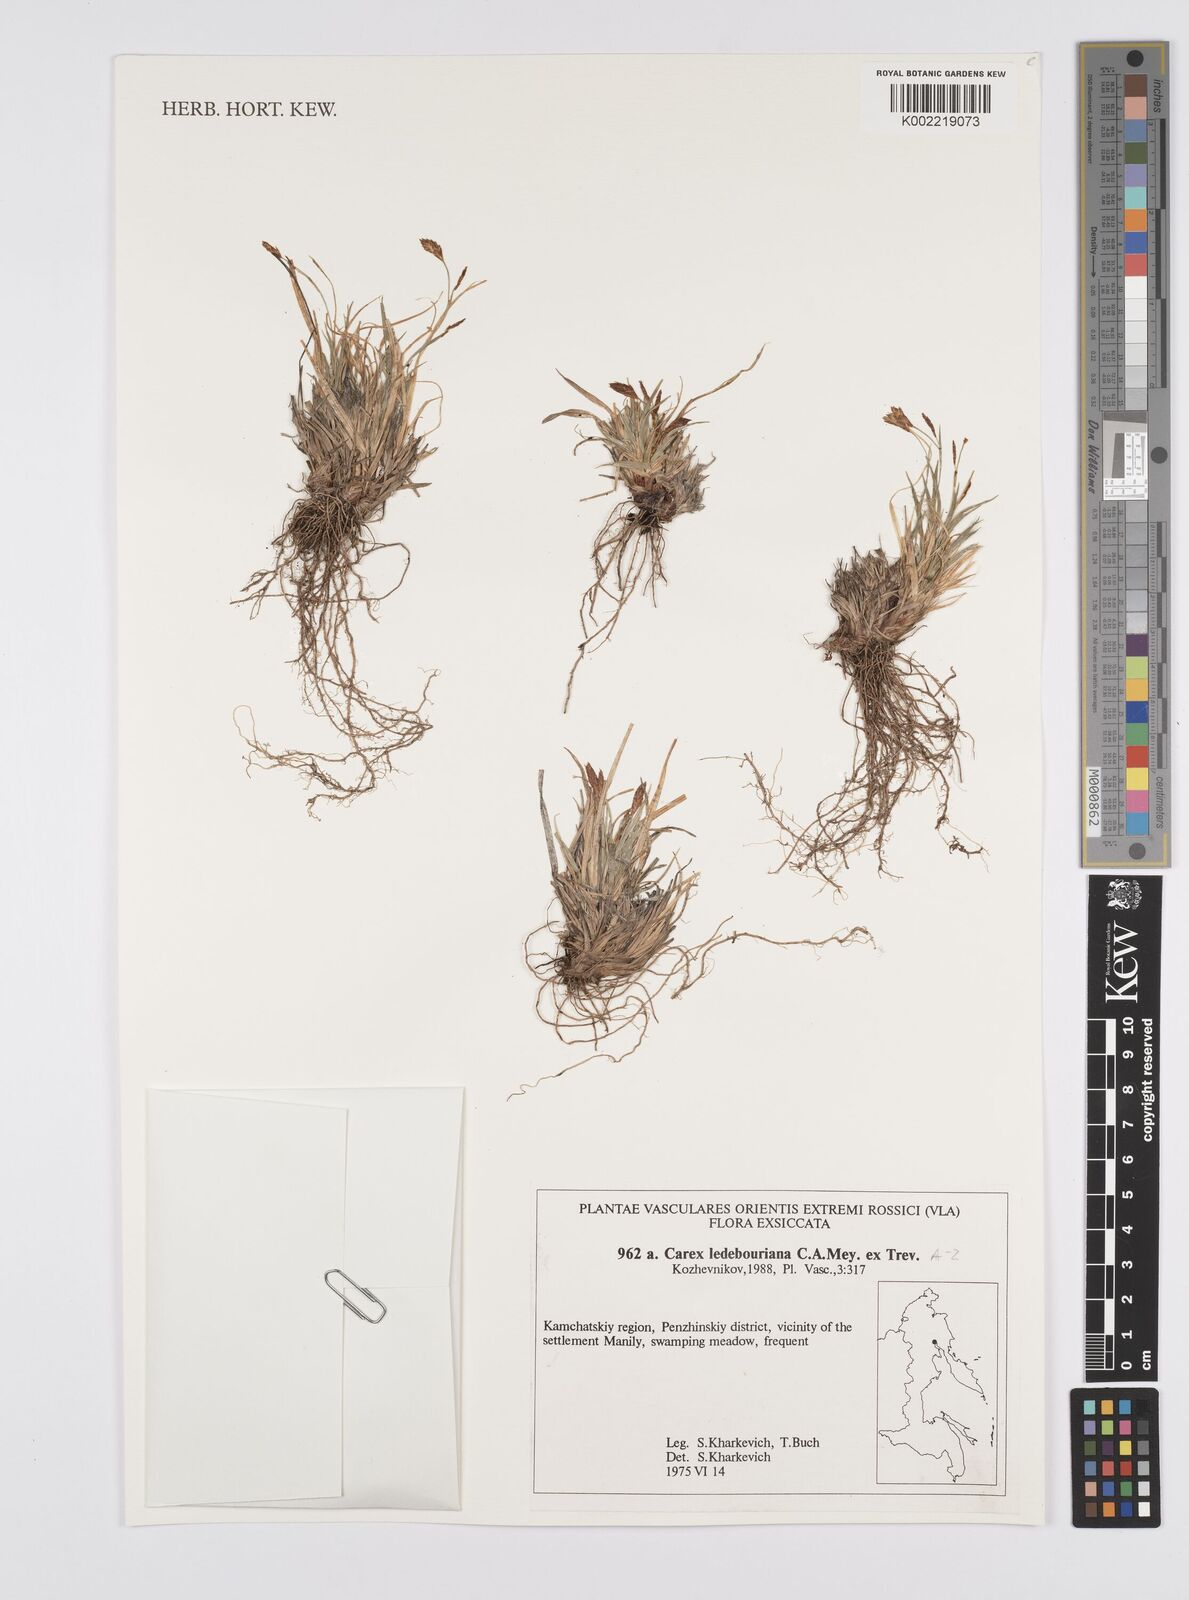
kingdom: Plantae
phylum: Tracheophyta
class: Liliopsida
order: Poales
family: Cyperaceae
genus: Carex
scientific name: Carex ledebouriana
